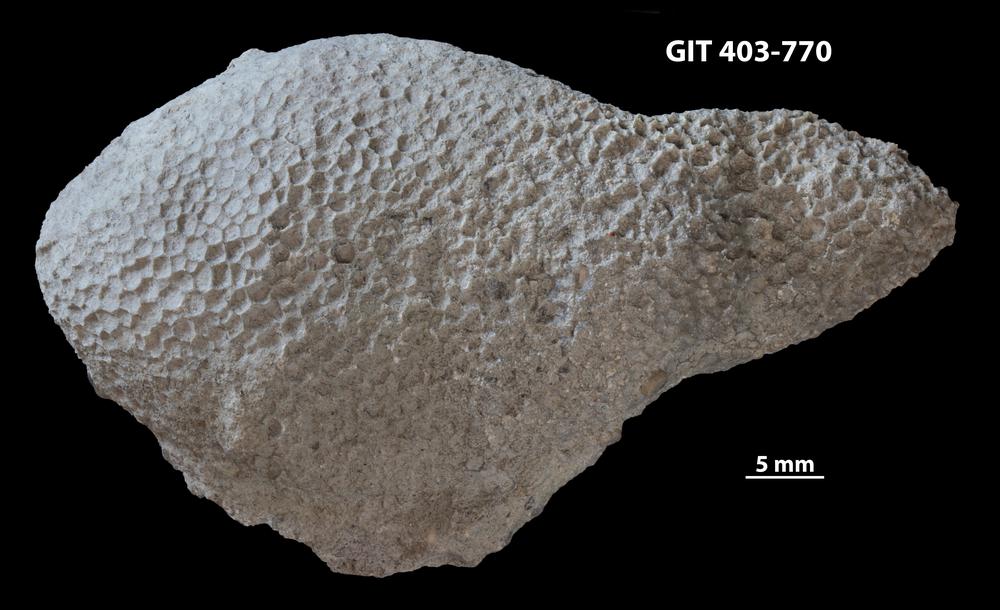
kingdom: Animalia
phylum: Cnidaria
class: Anthozoa
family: Favositidae
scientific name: Favositidae
